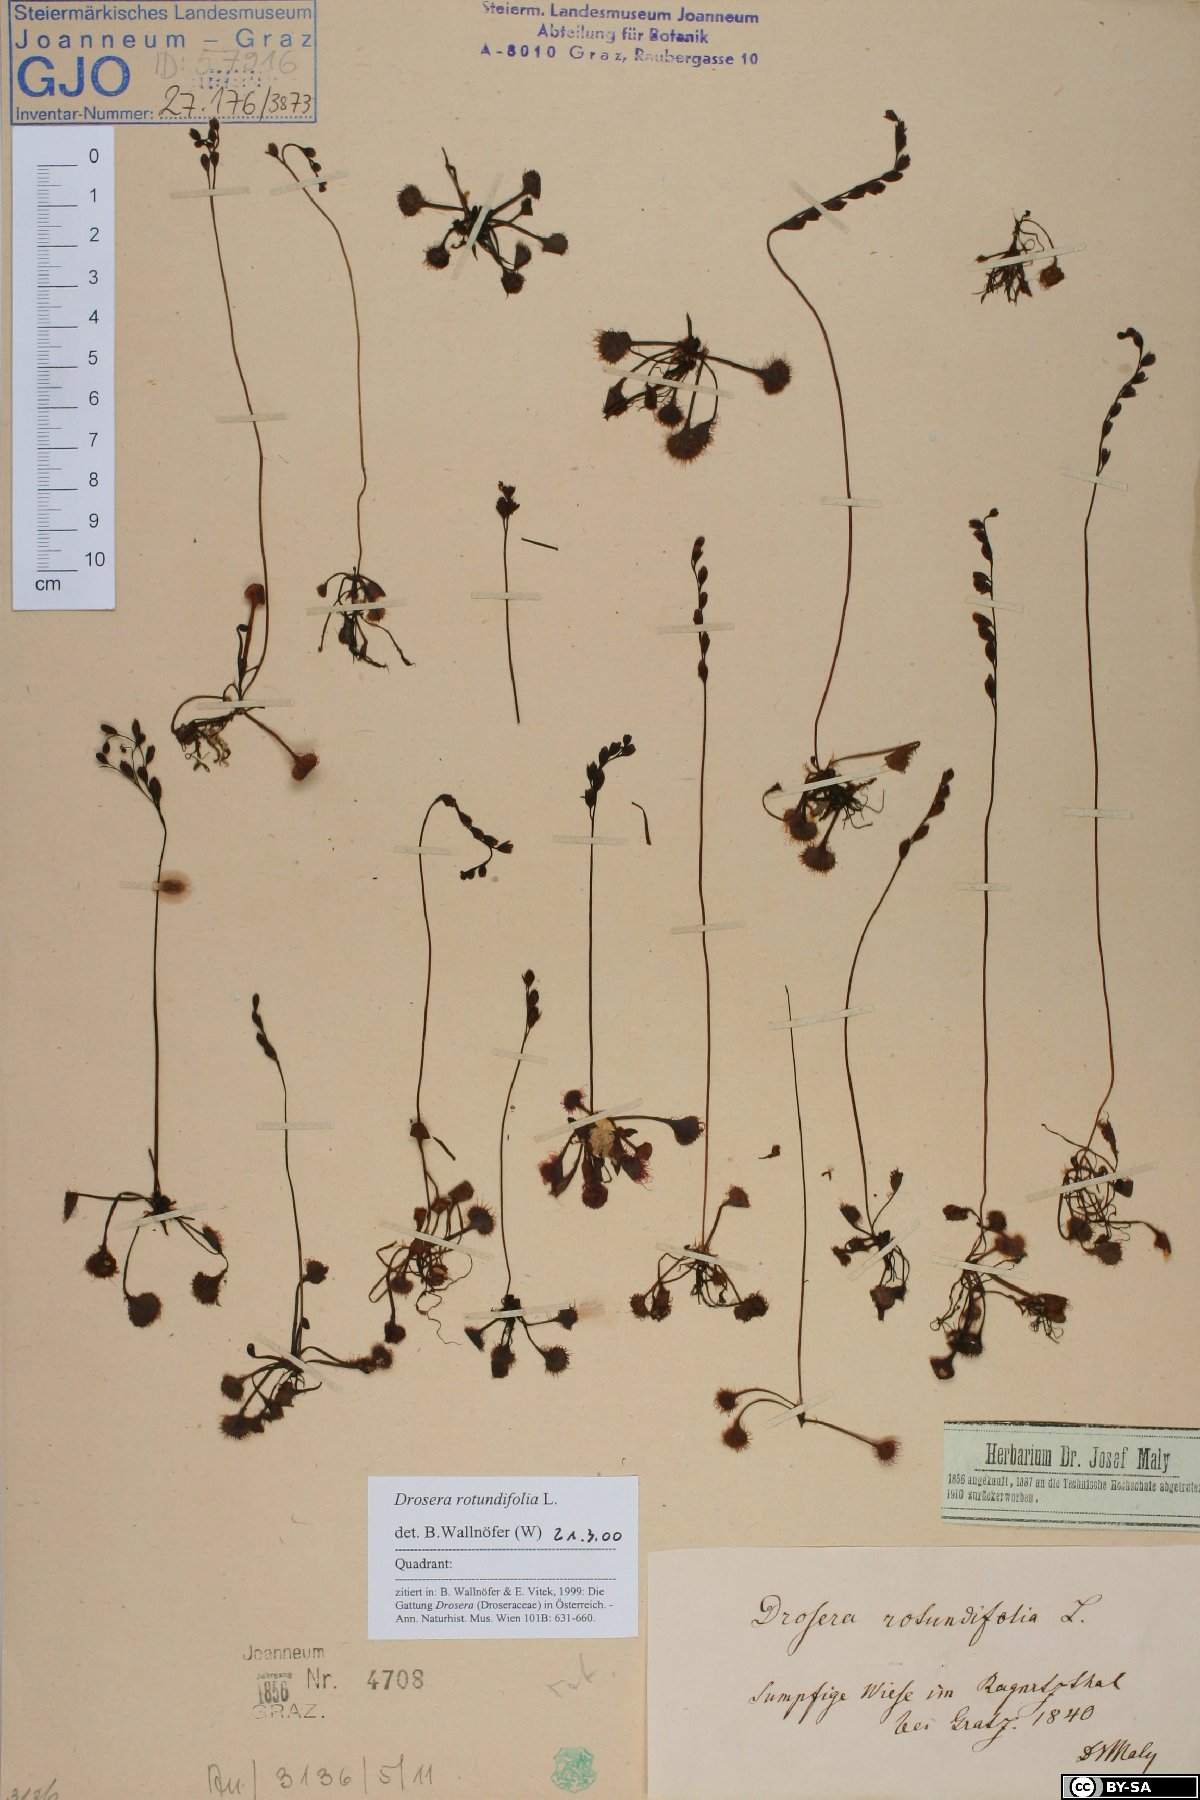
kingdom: Plantae
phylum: Tracheophyta
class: Magnoliopsida
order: Caryophyllales
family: Droseraceae
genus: Drosera
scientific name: Drosera rotundifolia
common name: Round-leaved sundew
